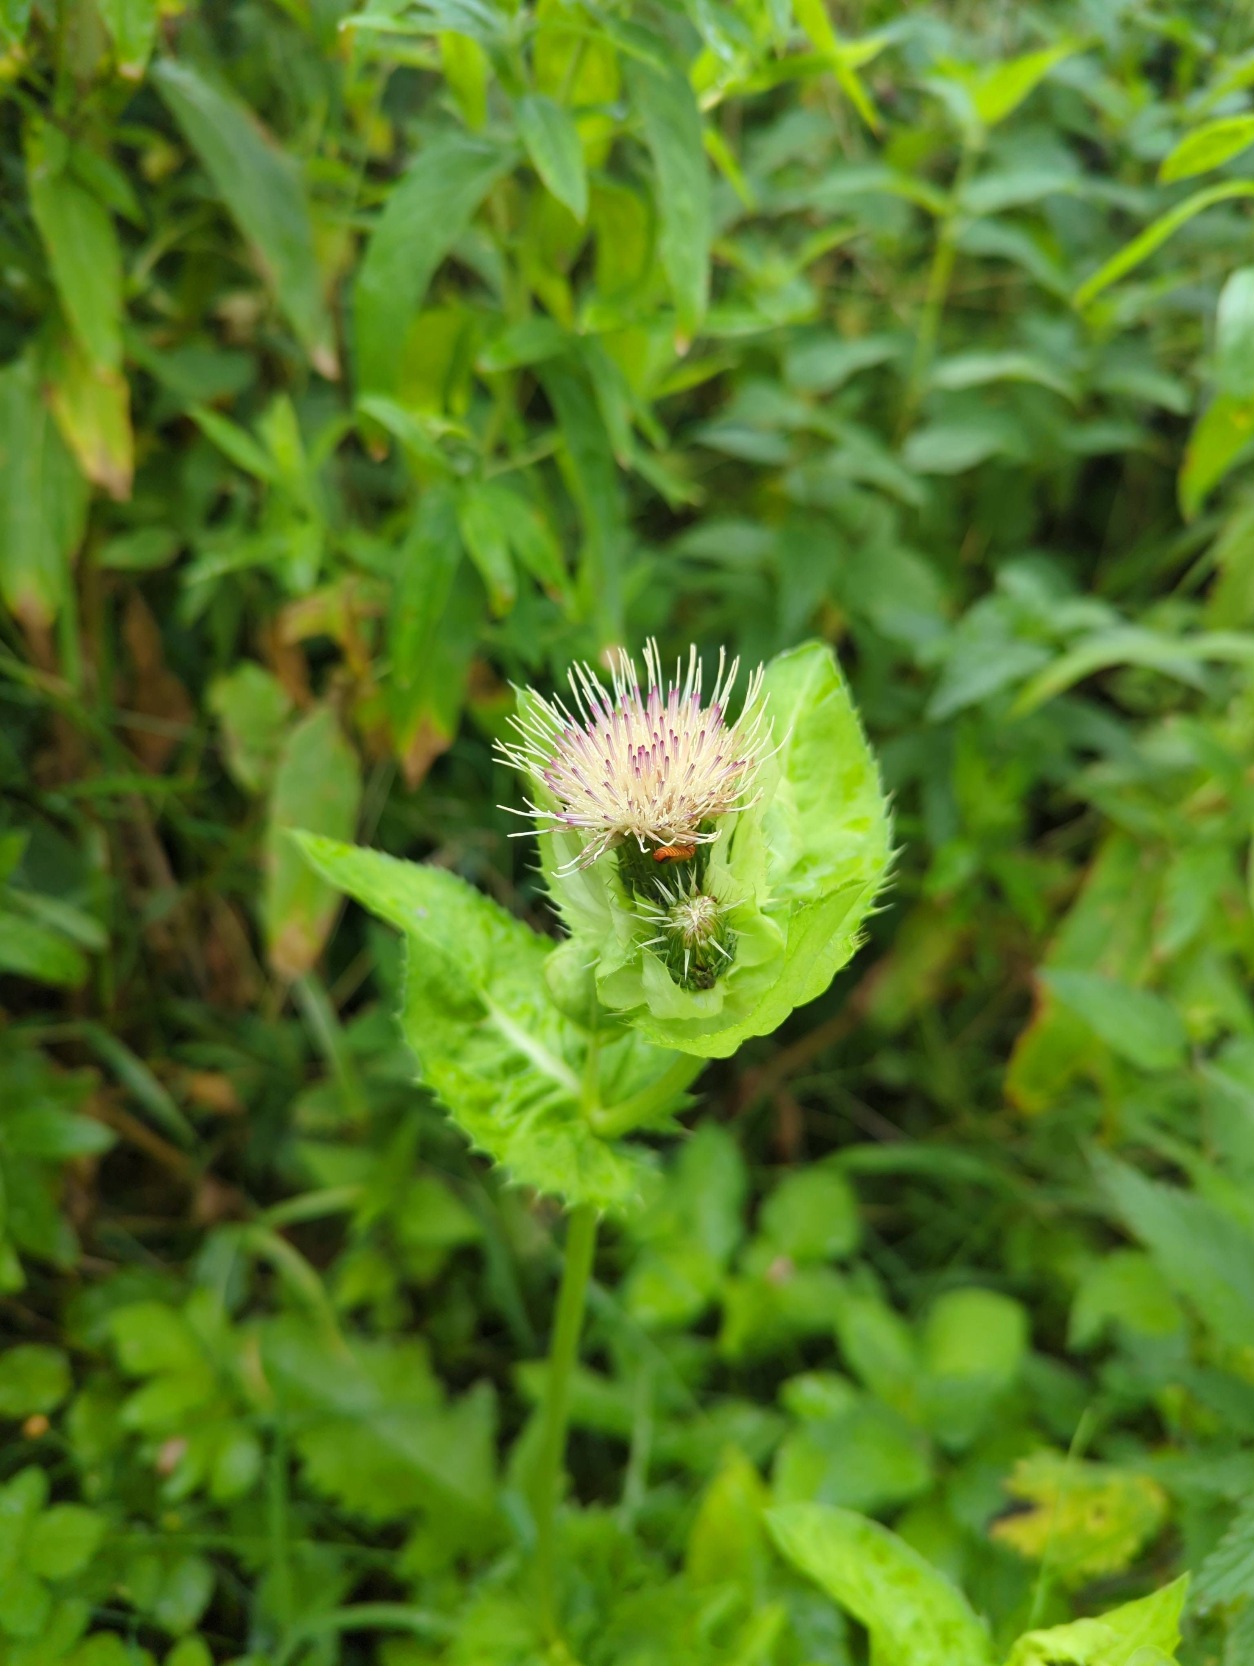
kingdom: Plantae
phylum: Tracheophyta
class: Magnoliopsida
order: Asterales
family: Asteraceae
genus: Cirsium
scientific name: Cirsium oleraceum
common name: Kål-tidsel
